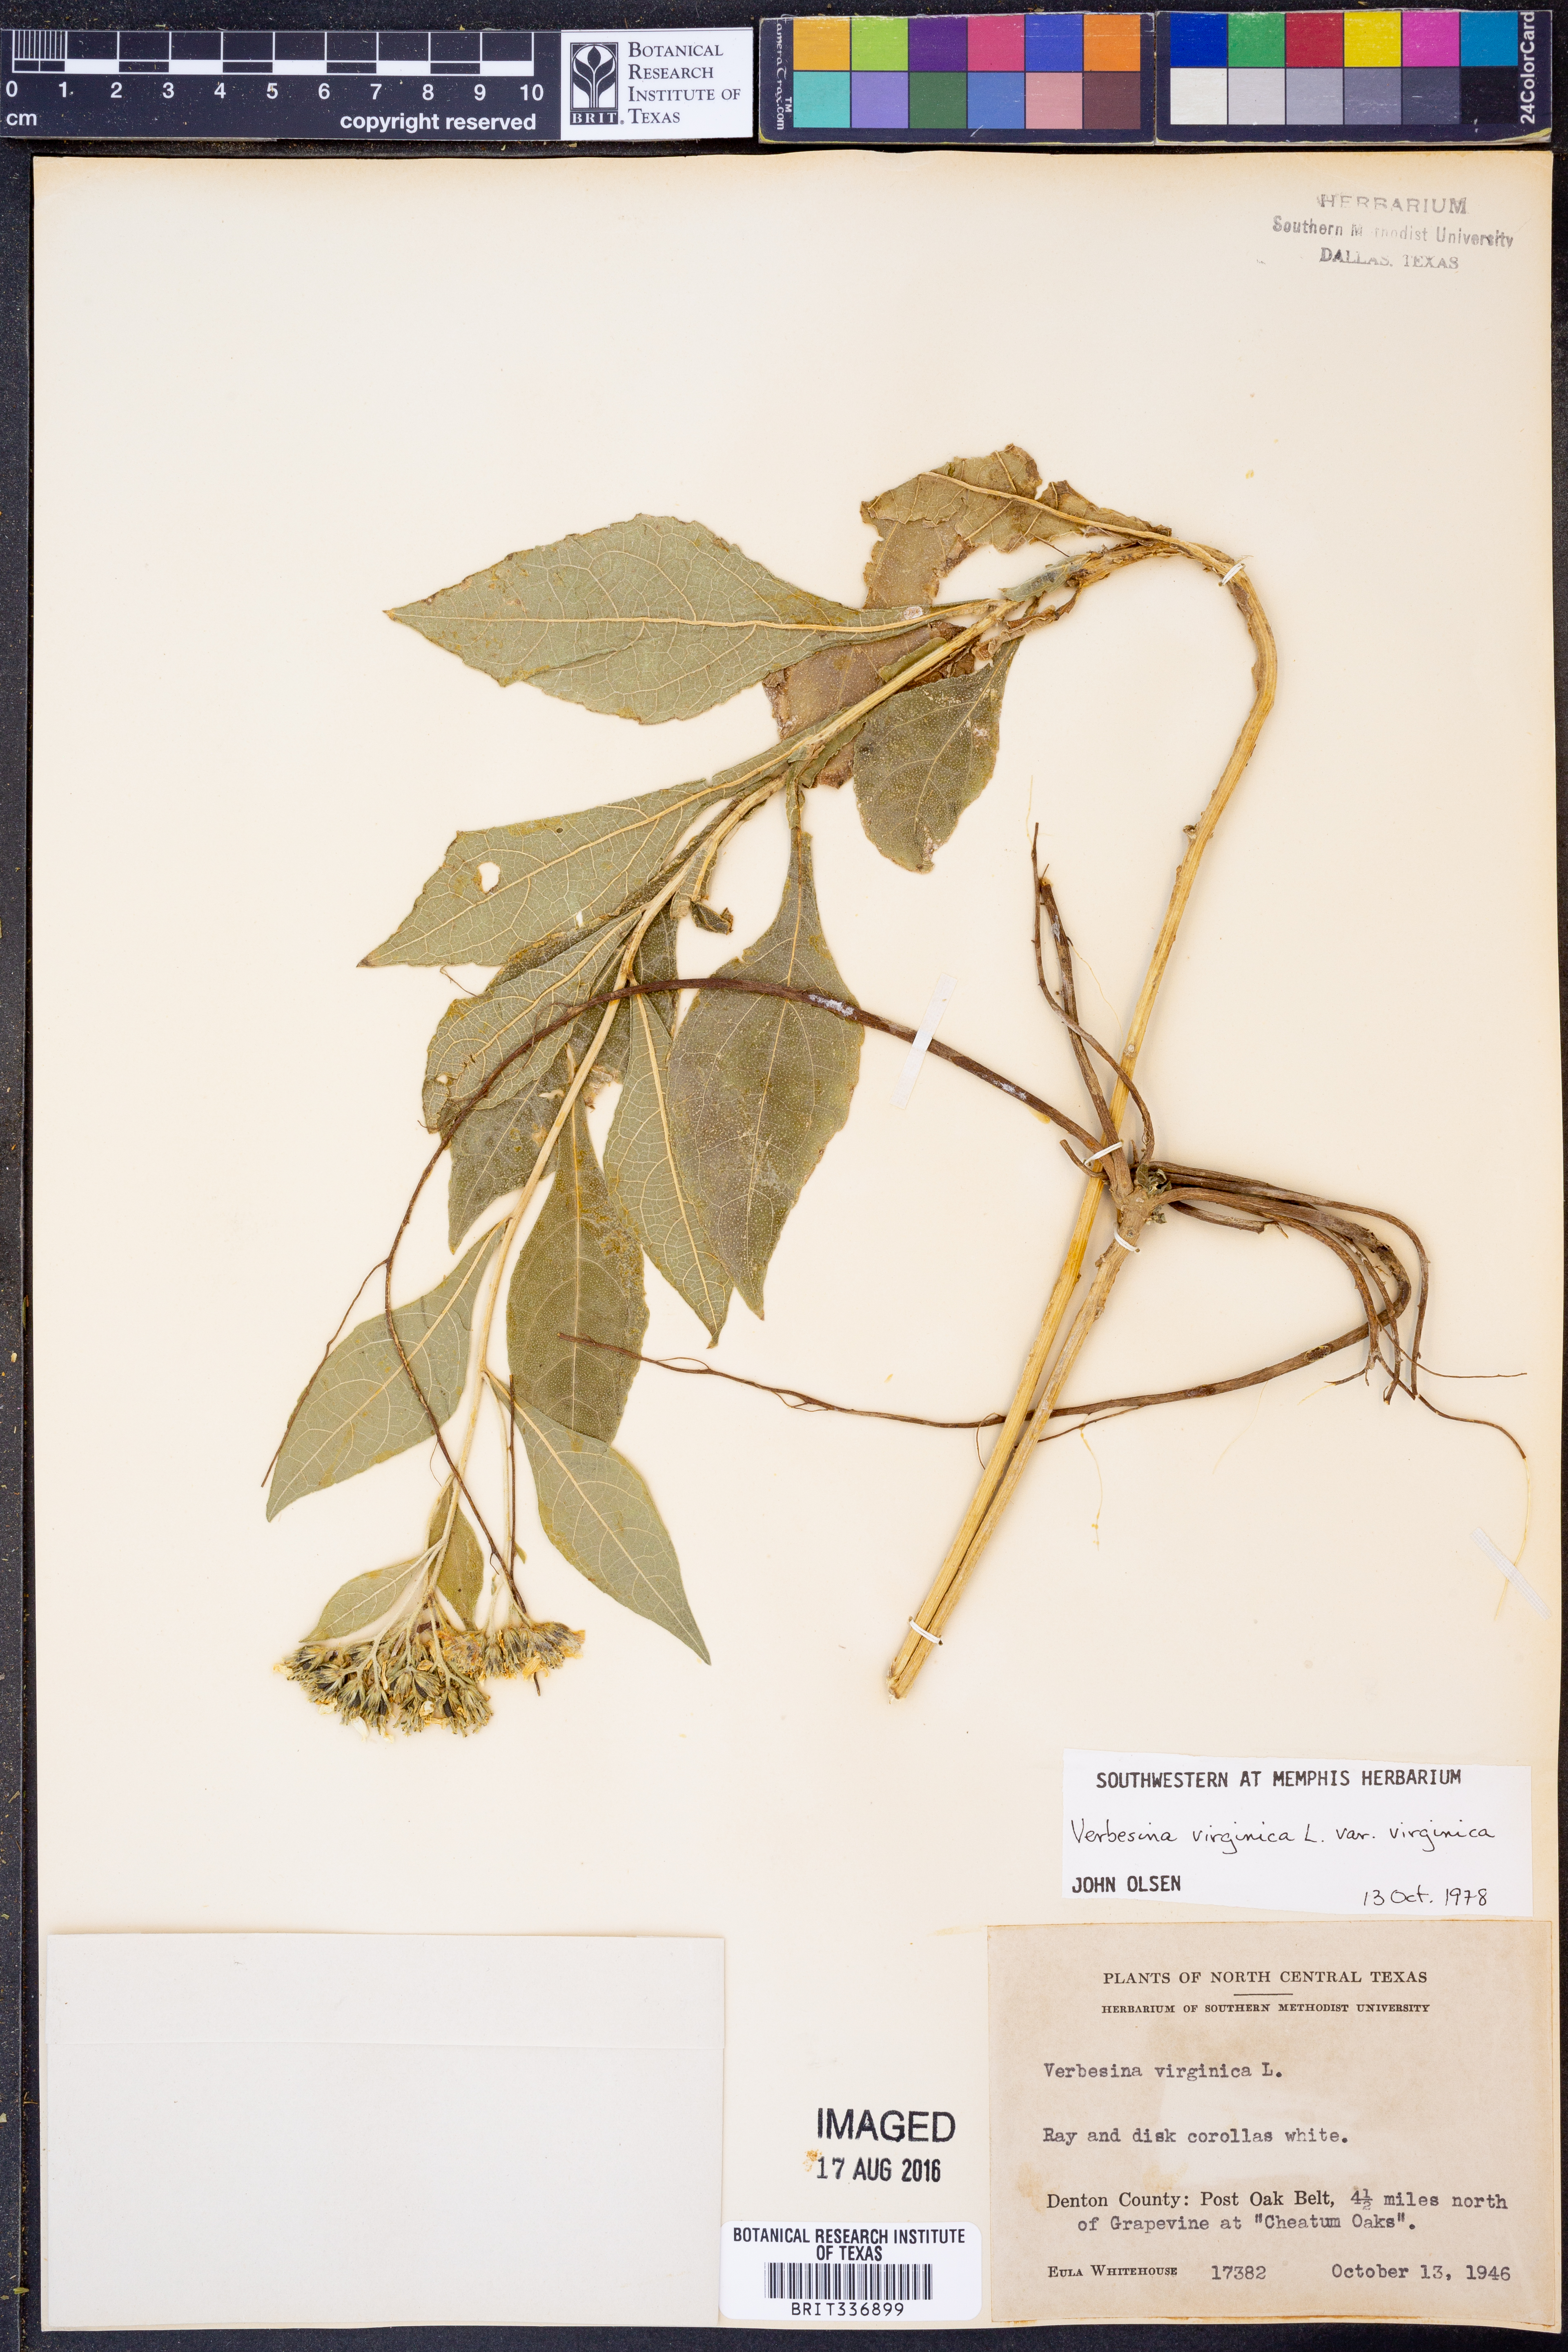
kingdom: Plantae
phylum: Tracheophyta
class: Magnoliopsida
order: Asterales
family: Asteraceae
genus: Verbesina
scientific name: Verbesina virginica
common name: Frostweed
